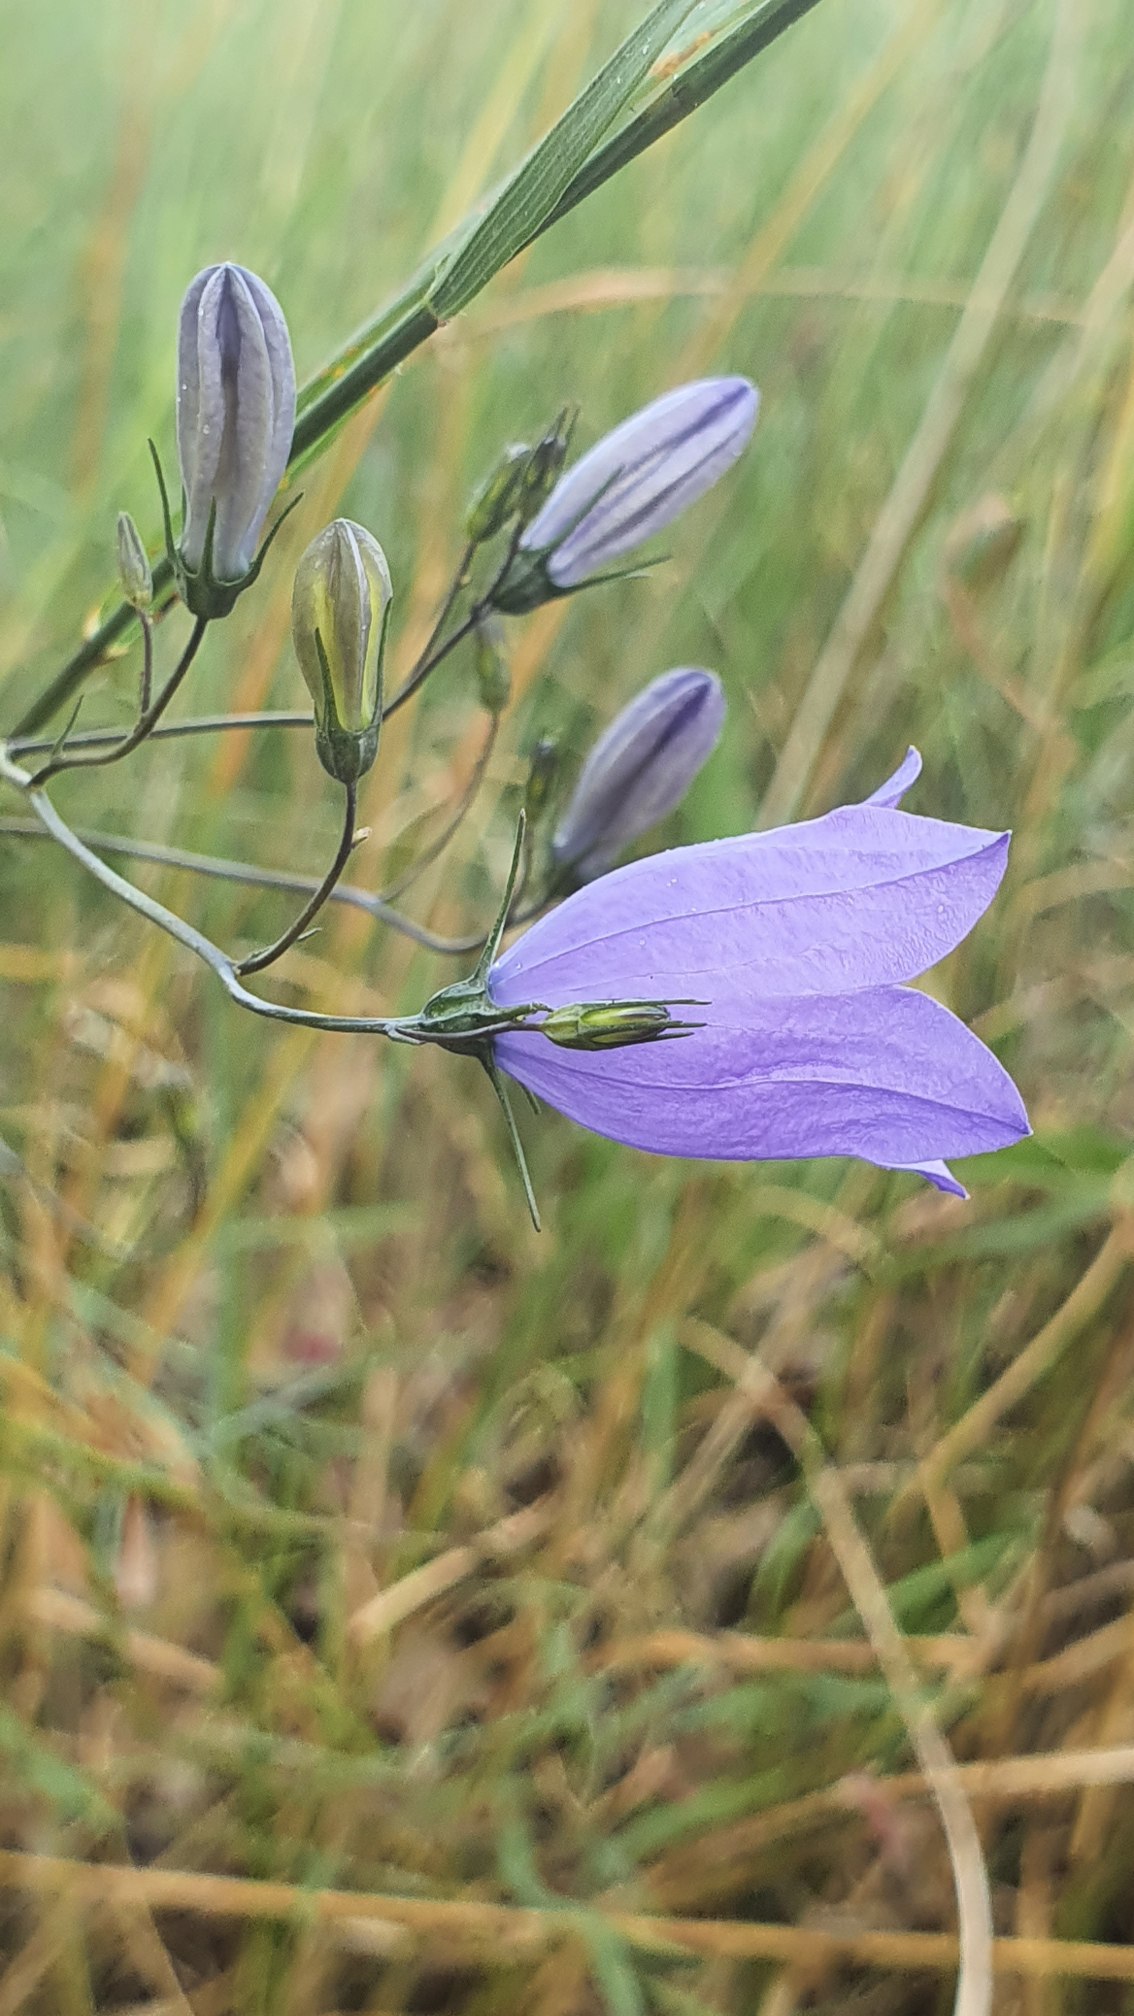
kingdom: Plantae
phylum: Tracheophyta
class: Magnoliopsida
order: Asterales
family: Campanulaceae
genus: Campanula
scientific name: Campanula rotundifolia
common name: Liden klokke
